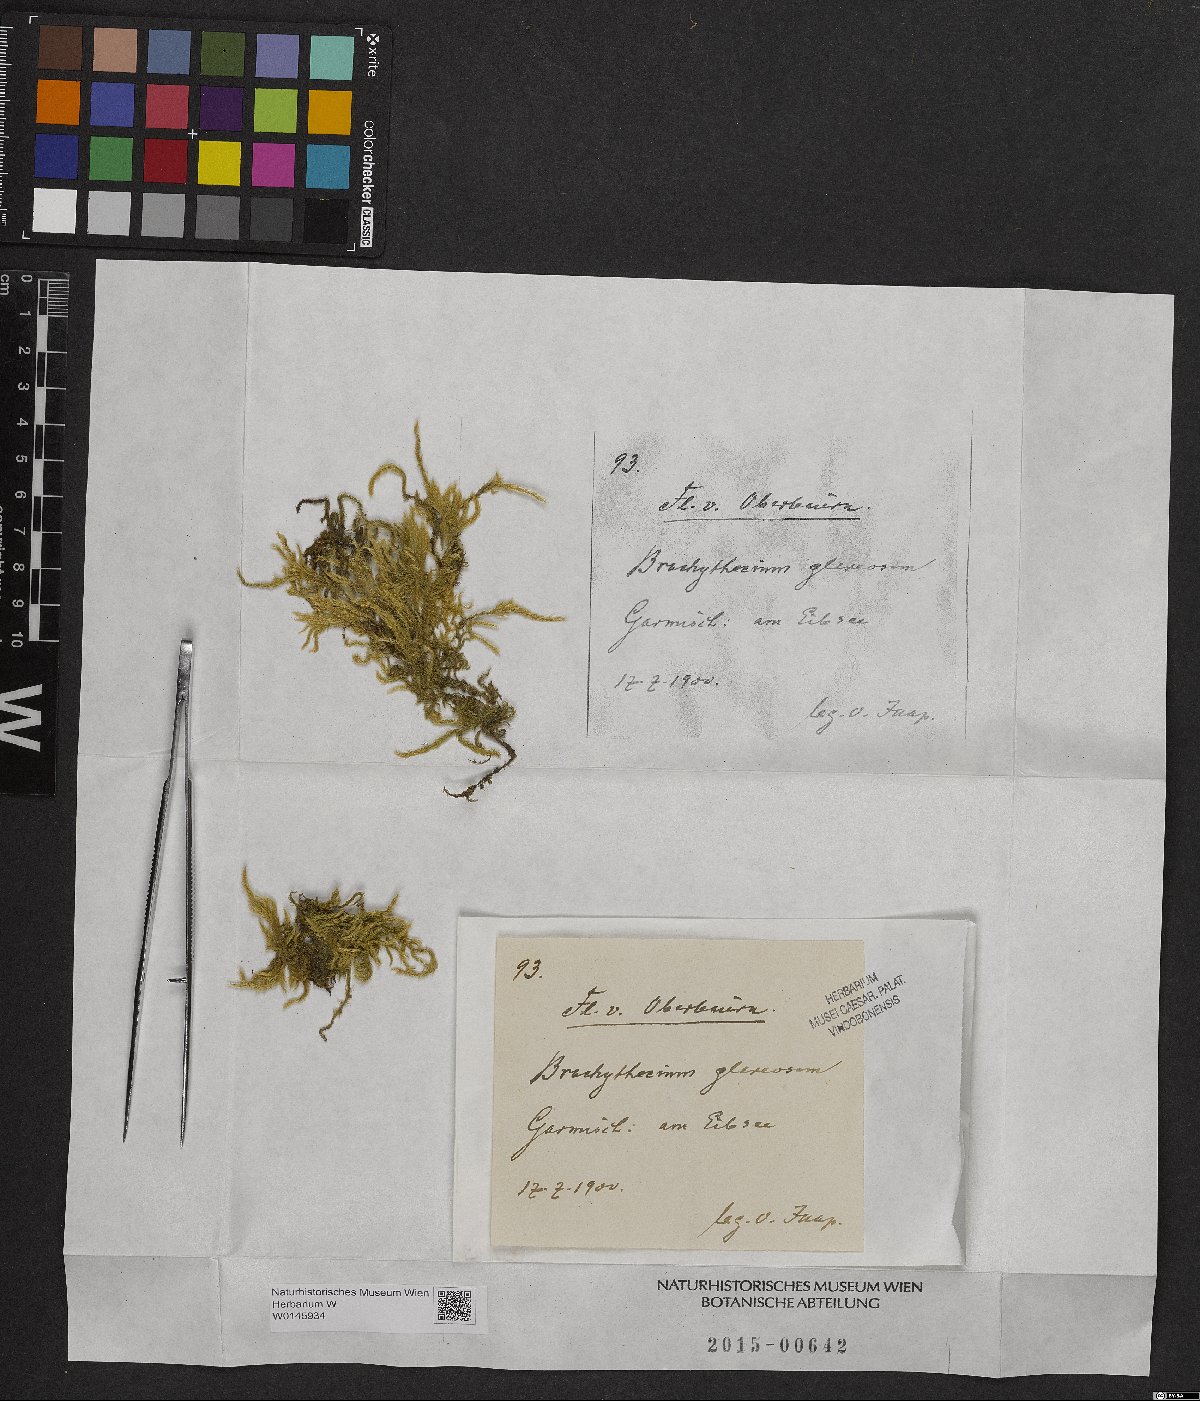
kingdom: Plantae
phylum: Bryophyta
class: Bryopsida
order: Hypnales
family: Brachytheciaceae
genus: Brachythecium
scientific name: Brachythecium glareosum
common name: Streaky feather-moss
